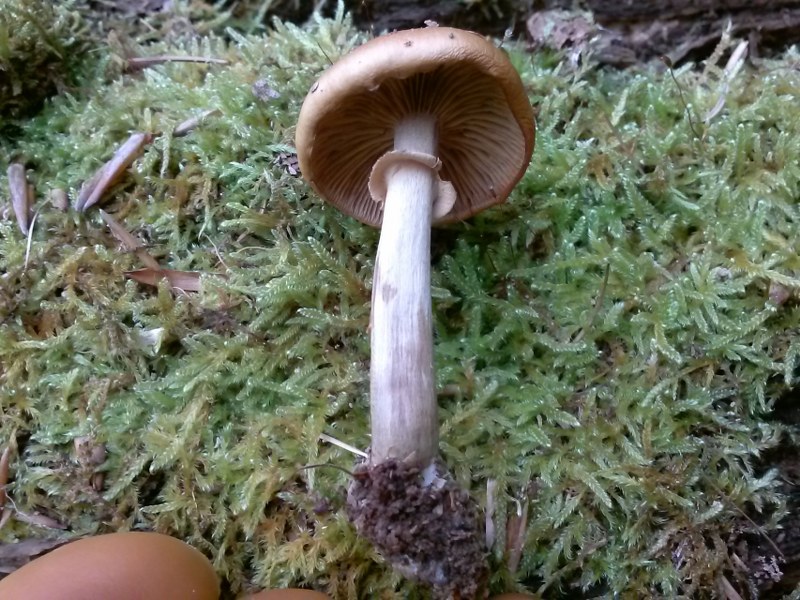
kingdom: Fungi
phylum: Basidiomycota
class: Agaricomycetes
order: Agaricales
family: Hymenogastraceae
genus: Galerina
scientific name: Galerina marginata
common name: randbæltet hjelmhat
